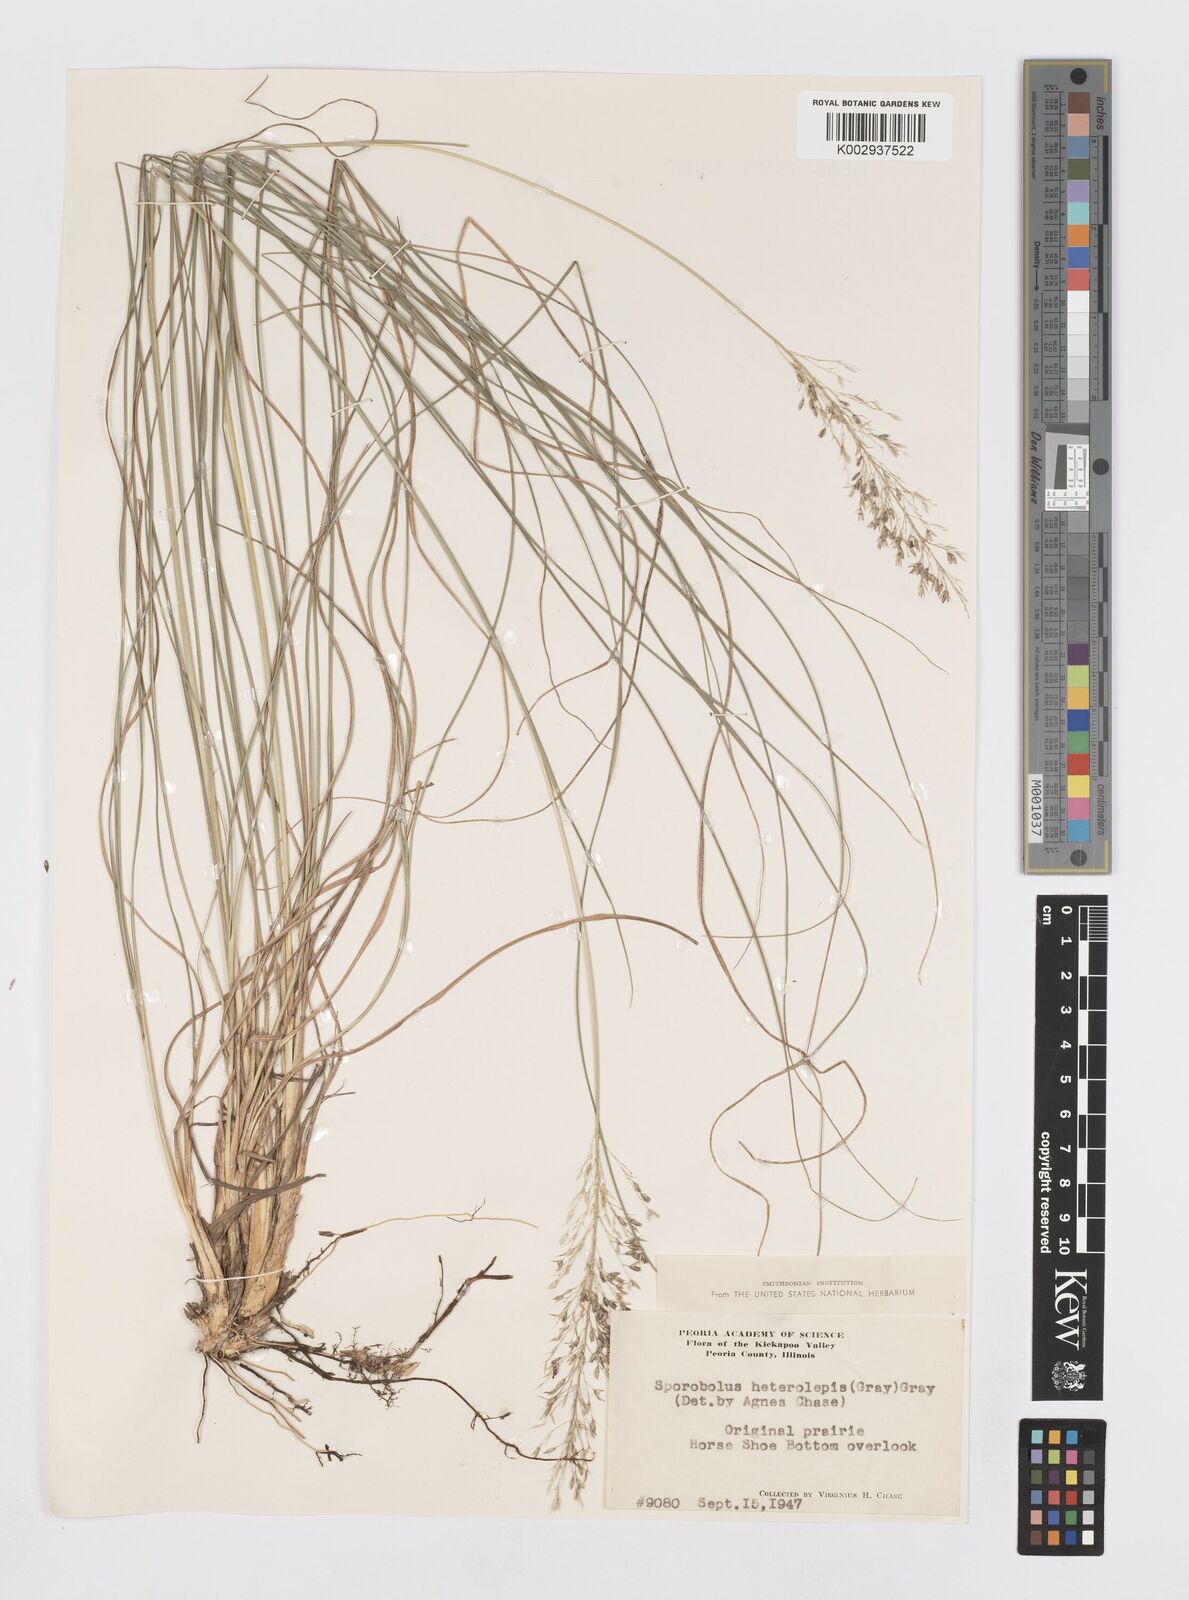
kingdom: Plantae
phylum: Tracheophyta
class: Liliopsida
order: Poales
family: Poaceae
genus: Sporobolus
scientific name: Sporobolus heterolepis
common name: Prairie dropseed
